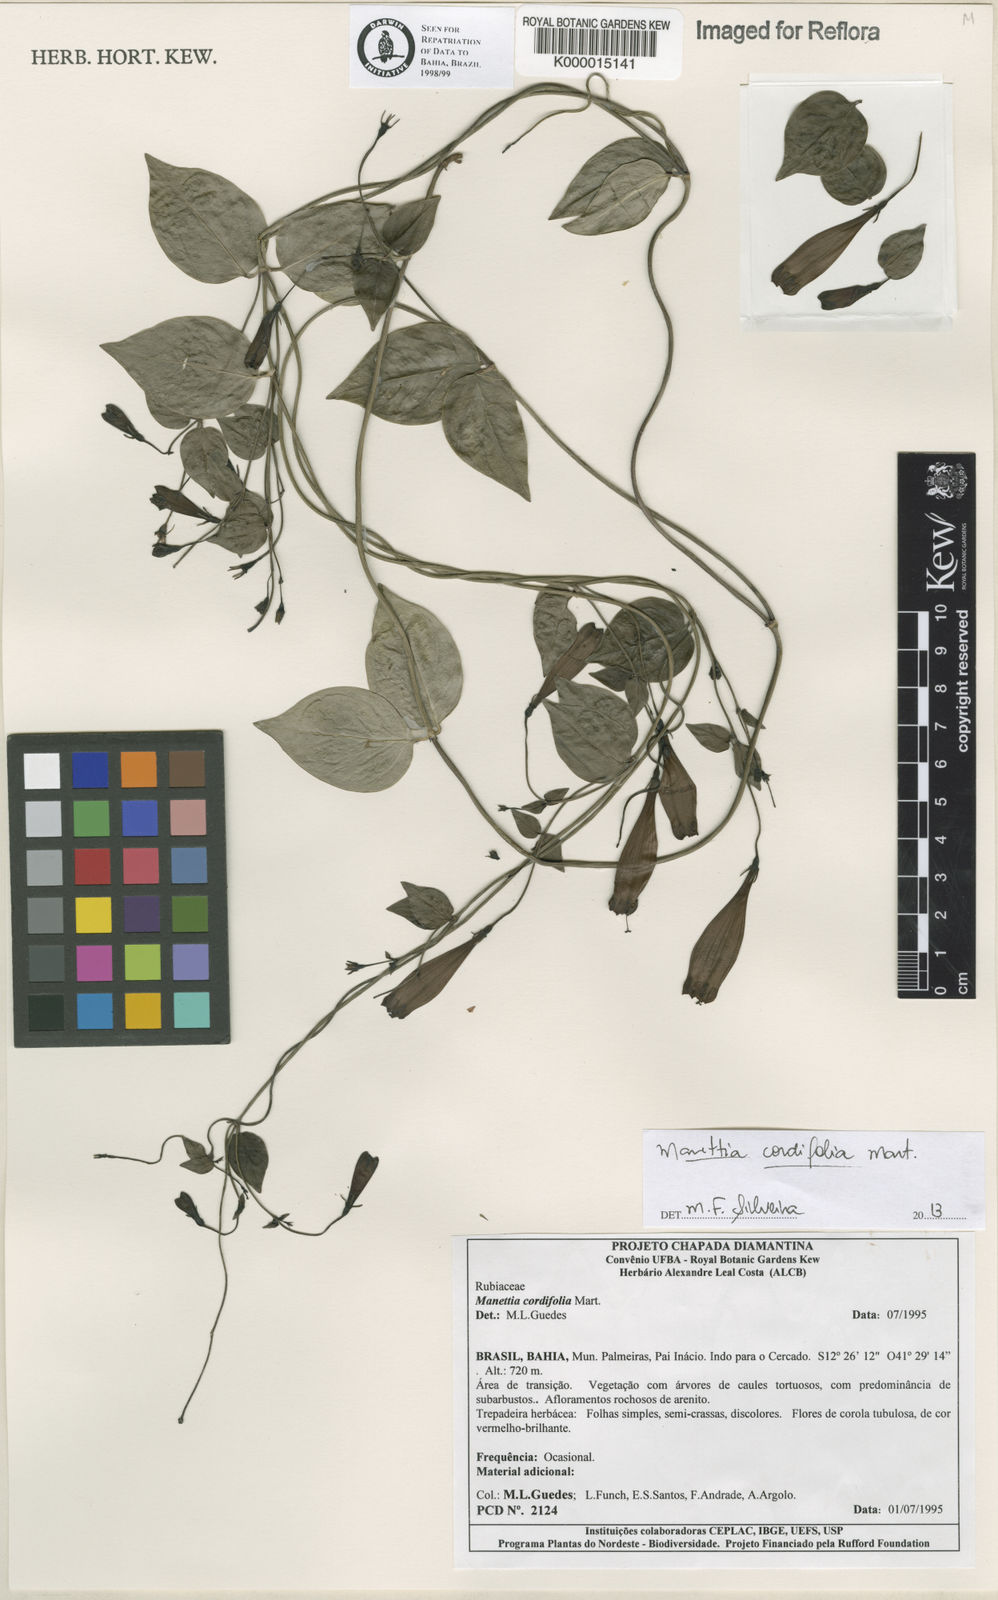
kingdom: Plantae
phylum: Tracheophyta
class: Magnoliopsida
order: Gentianales
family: Rubiaceae
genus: Manettia
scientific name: Manettia cordifolia
